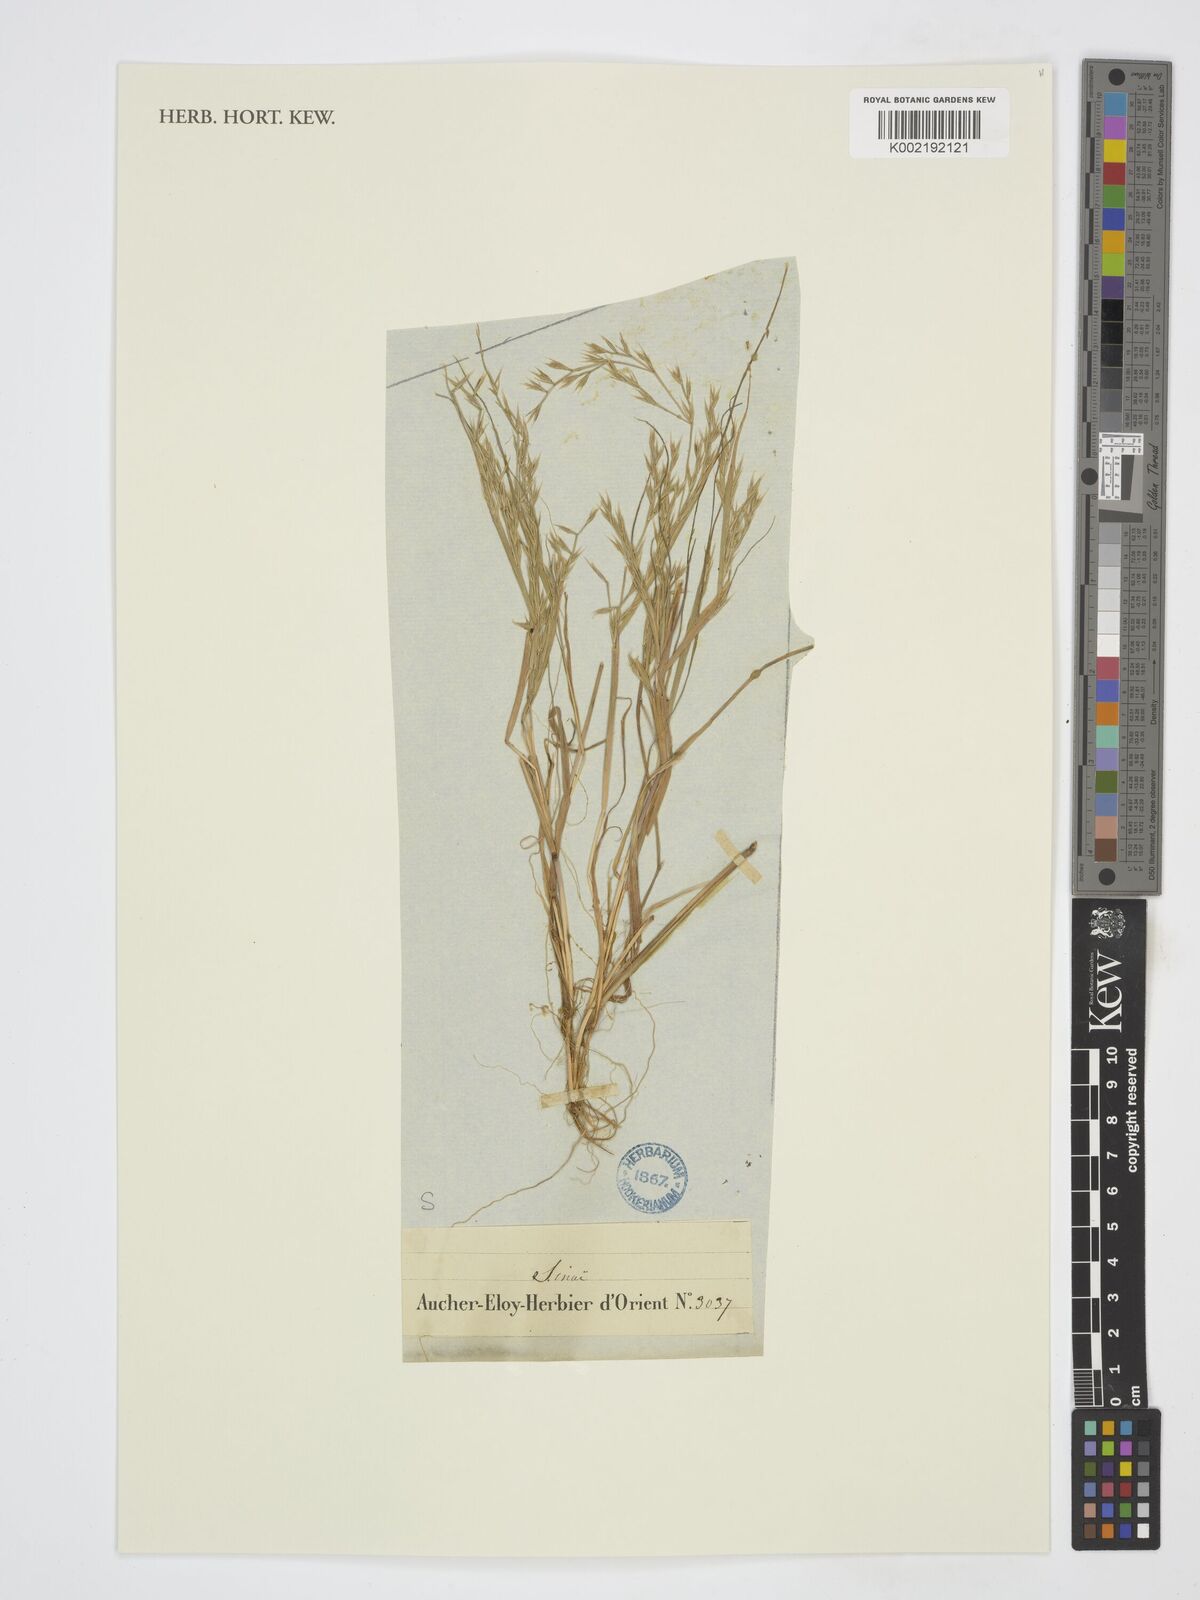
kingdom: Plantae
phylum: Tracheophyta
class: Liliopsida
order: Poales
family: Poaceae
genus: Cutandia
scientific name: Cutandia
